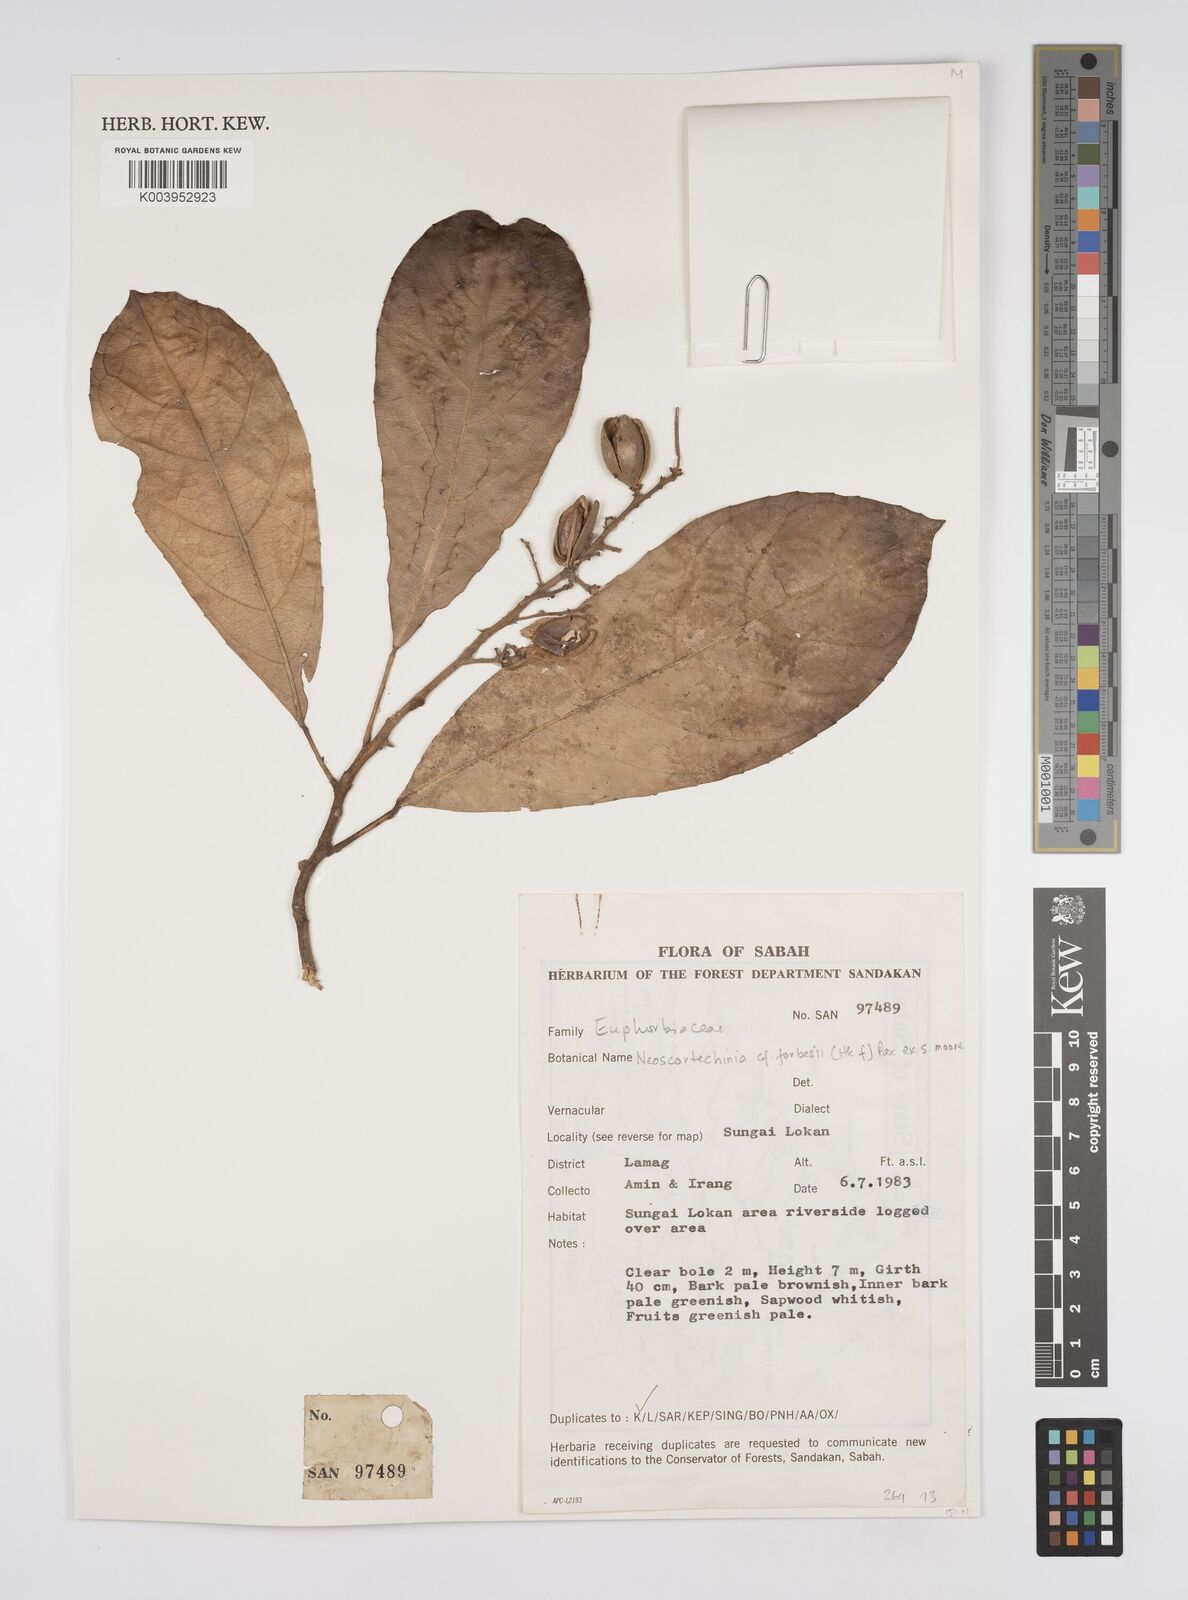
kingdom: Plantae
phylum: Tracheophyta
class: Magnoliopsida
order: Malpighiales
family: Euphorbiaceae
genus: Neoscortechinia
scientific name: Neoscortechinia philippinensis
